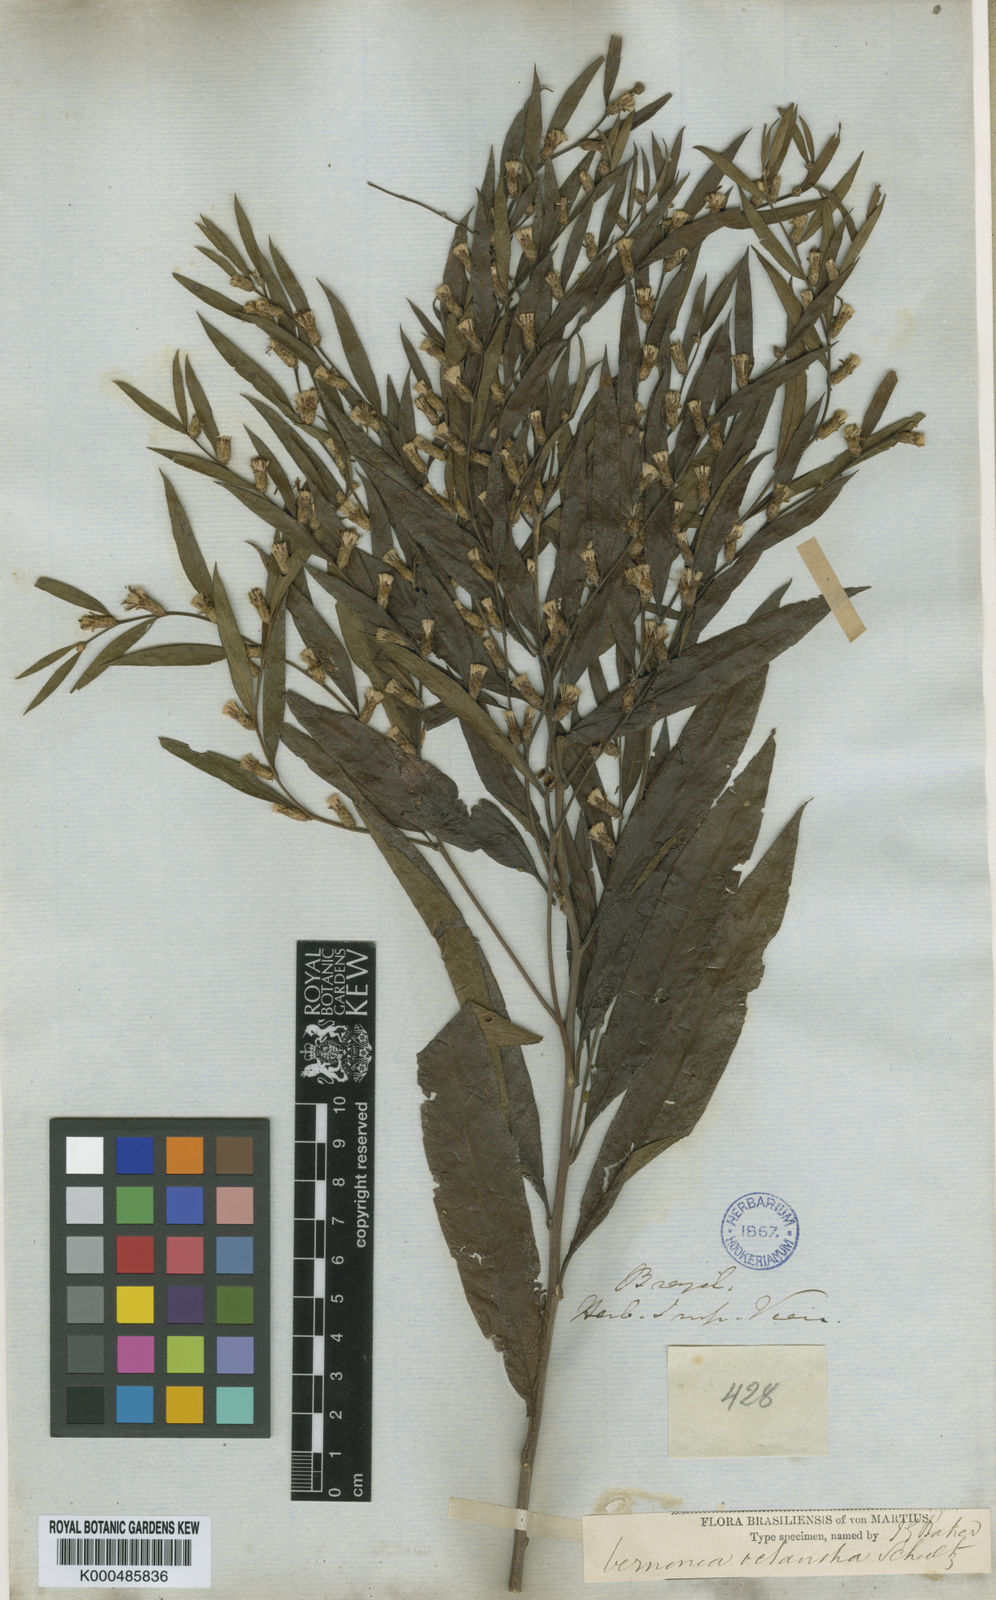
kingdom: Plantae
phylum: Tracheophyta
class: Magnoliopsida
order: Asterales
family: Asteraceae
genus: Lessingianthus
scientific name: Lessingianthus octanthus
